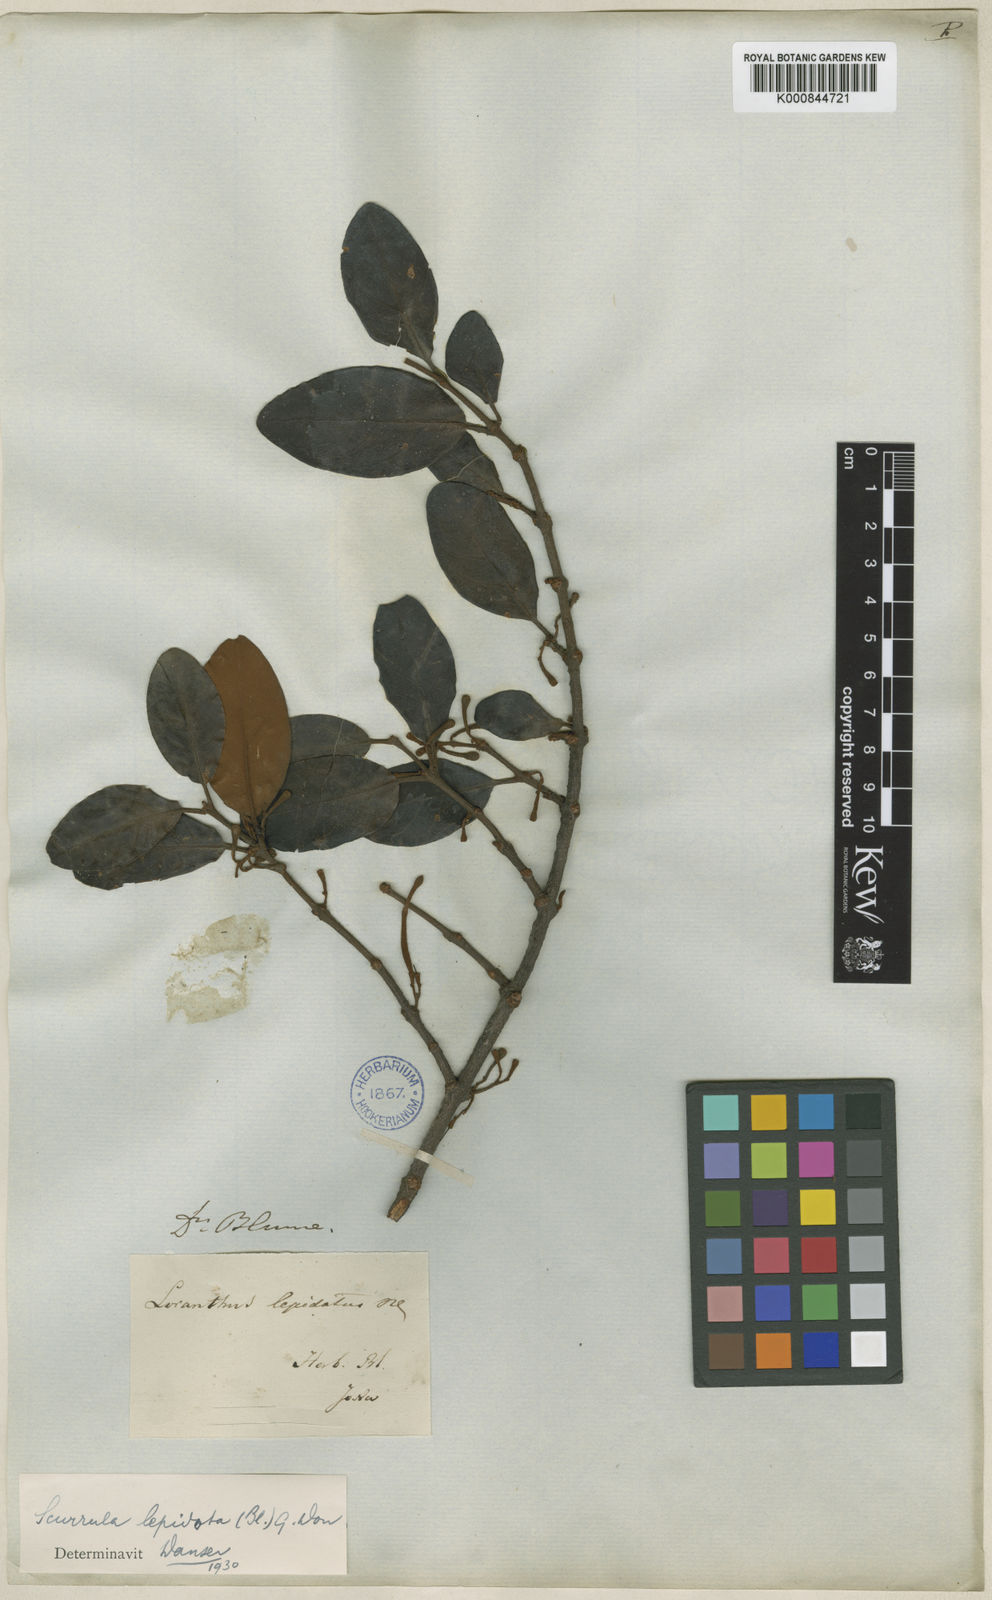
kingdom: Plantae
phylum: Tracheophyta
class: Magnoliopsida
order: Santalales
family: Loranthaceae
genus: Scurrula
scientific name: Scurrula lepidota
